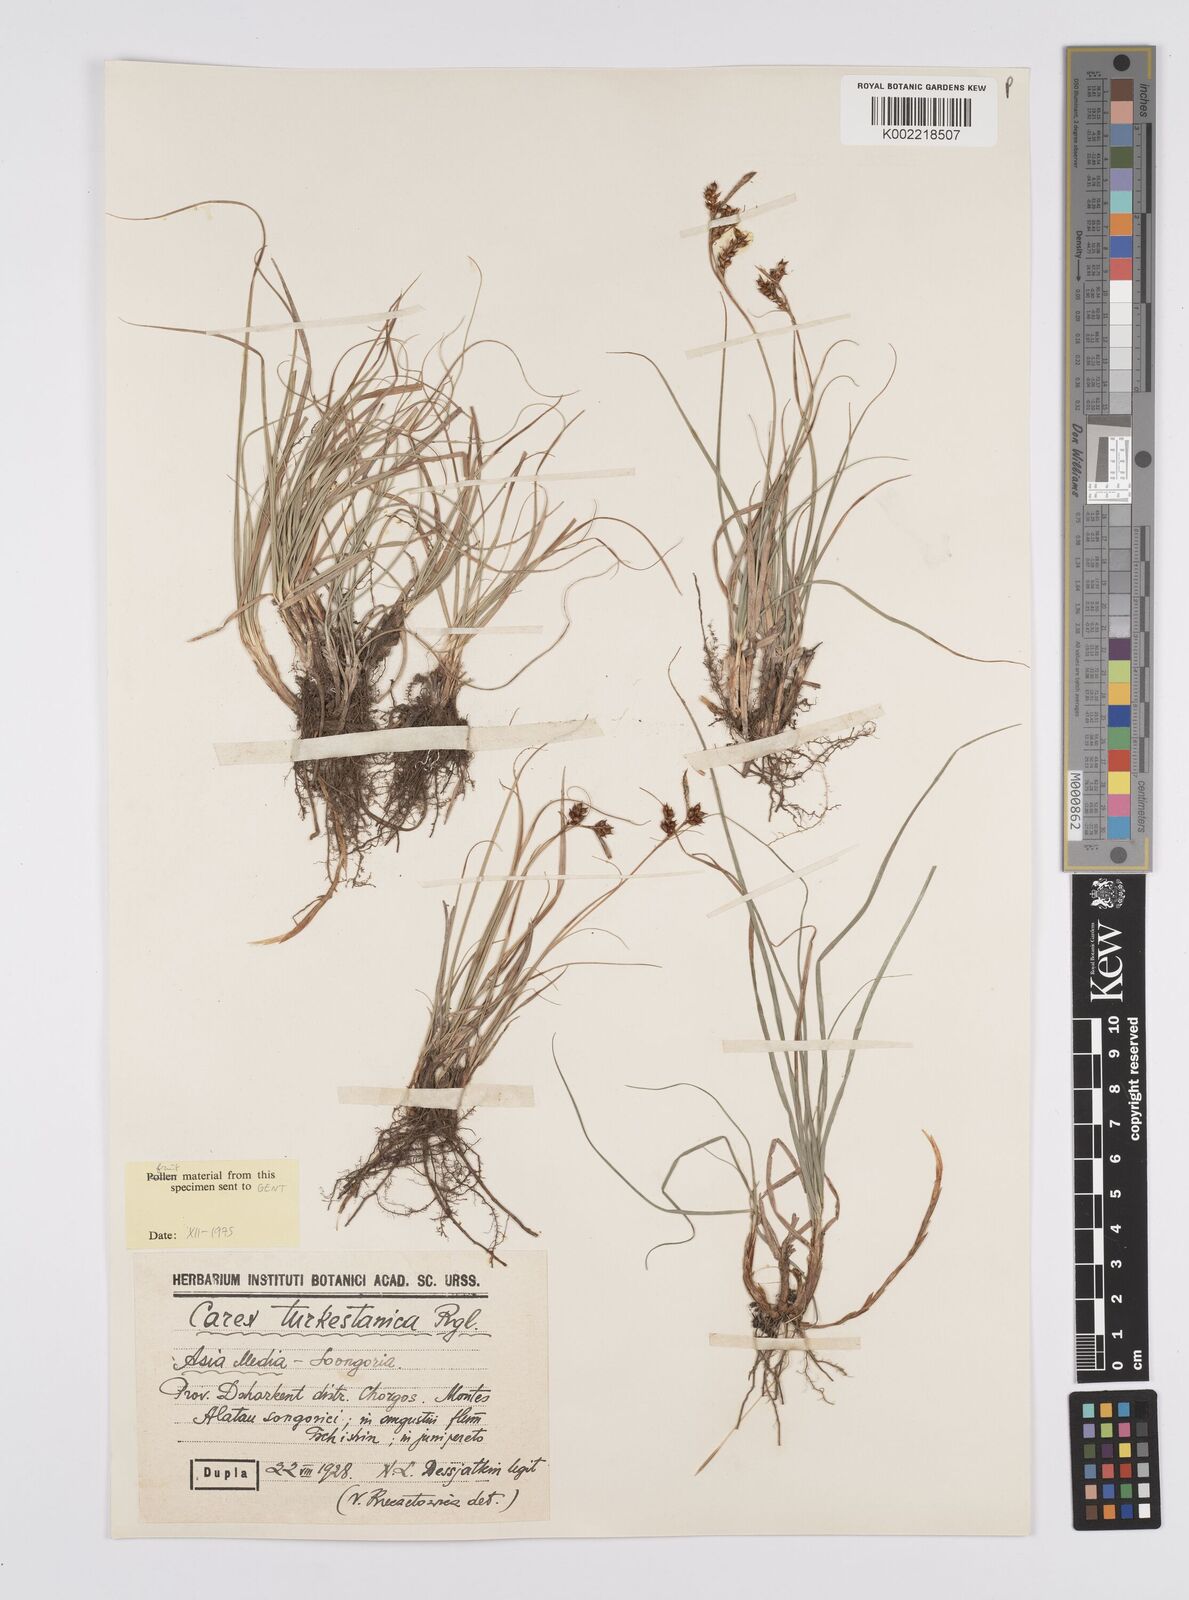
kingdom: Plantae
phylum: Tracheophyta
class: Liliopsida
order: Poales
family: Cyperaceae
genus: Carex
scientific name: Carex liparocarpos
